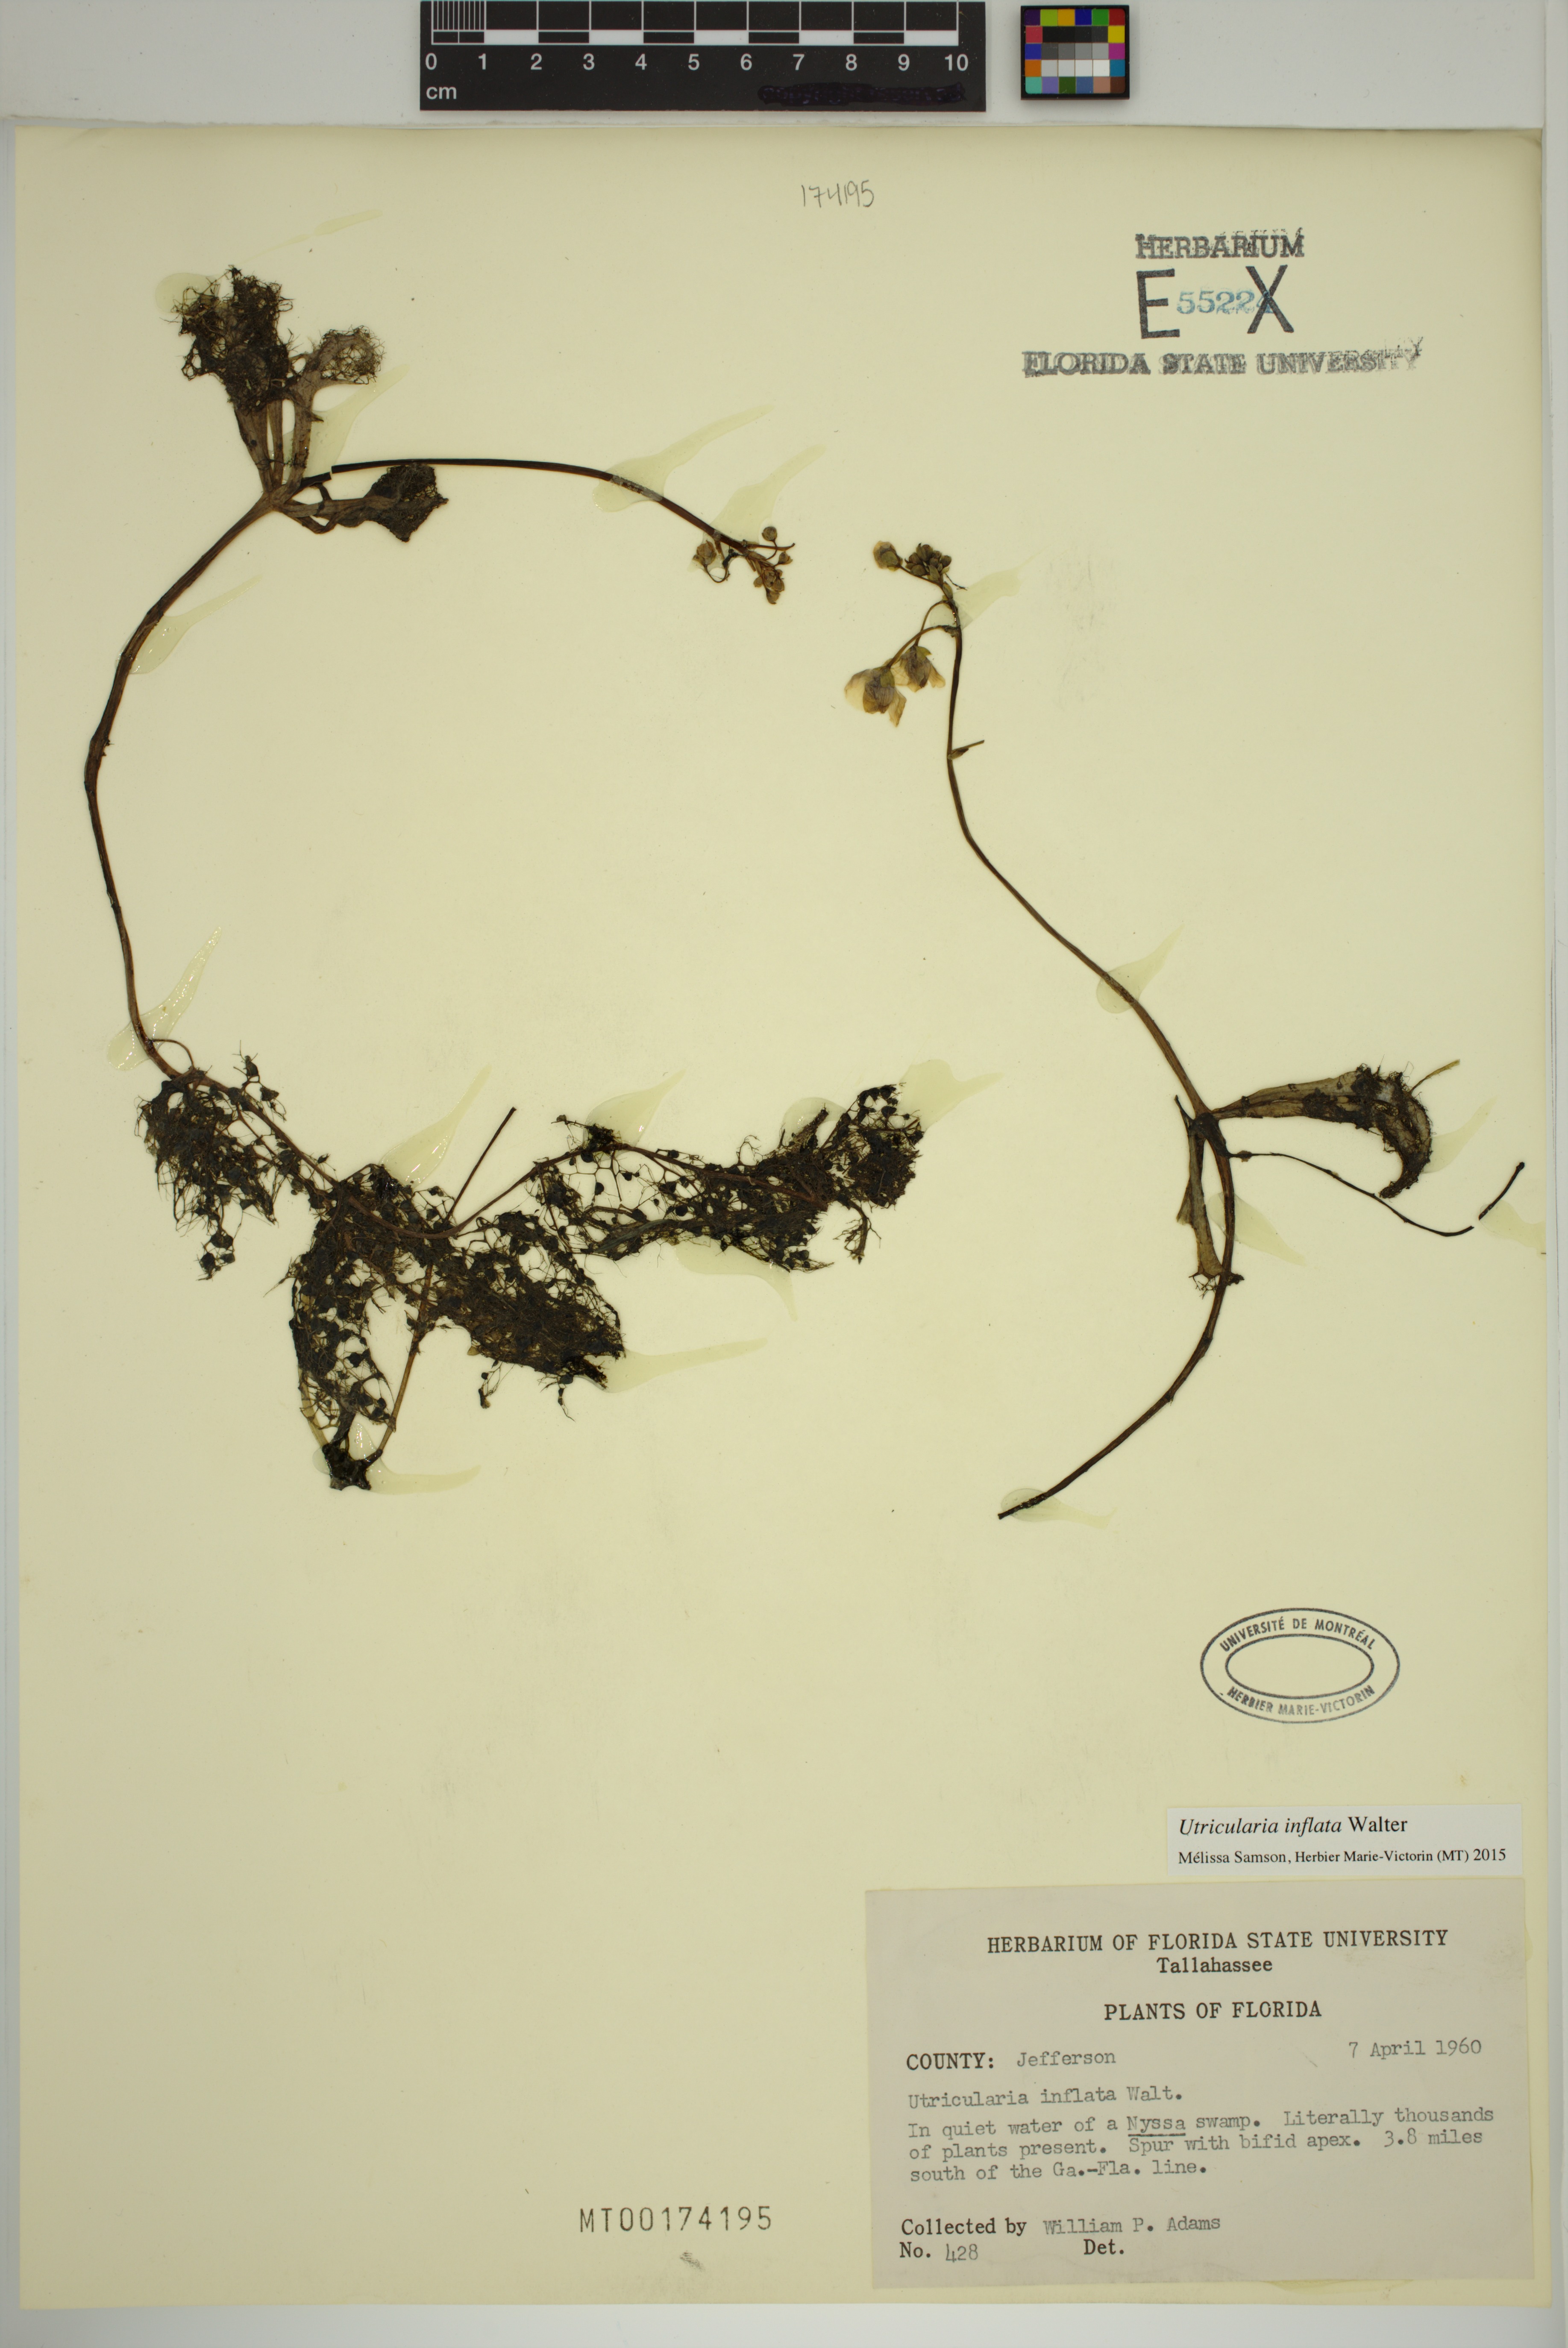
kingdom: Plantae
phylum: Tracheophyta
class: Magnoliopsida
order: Lamiales
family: Lentibulariaceae
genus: Utricularia
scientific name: Utricularia inflata
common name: Floating bladderwort
